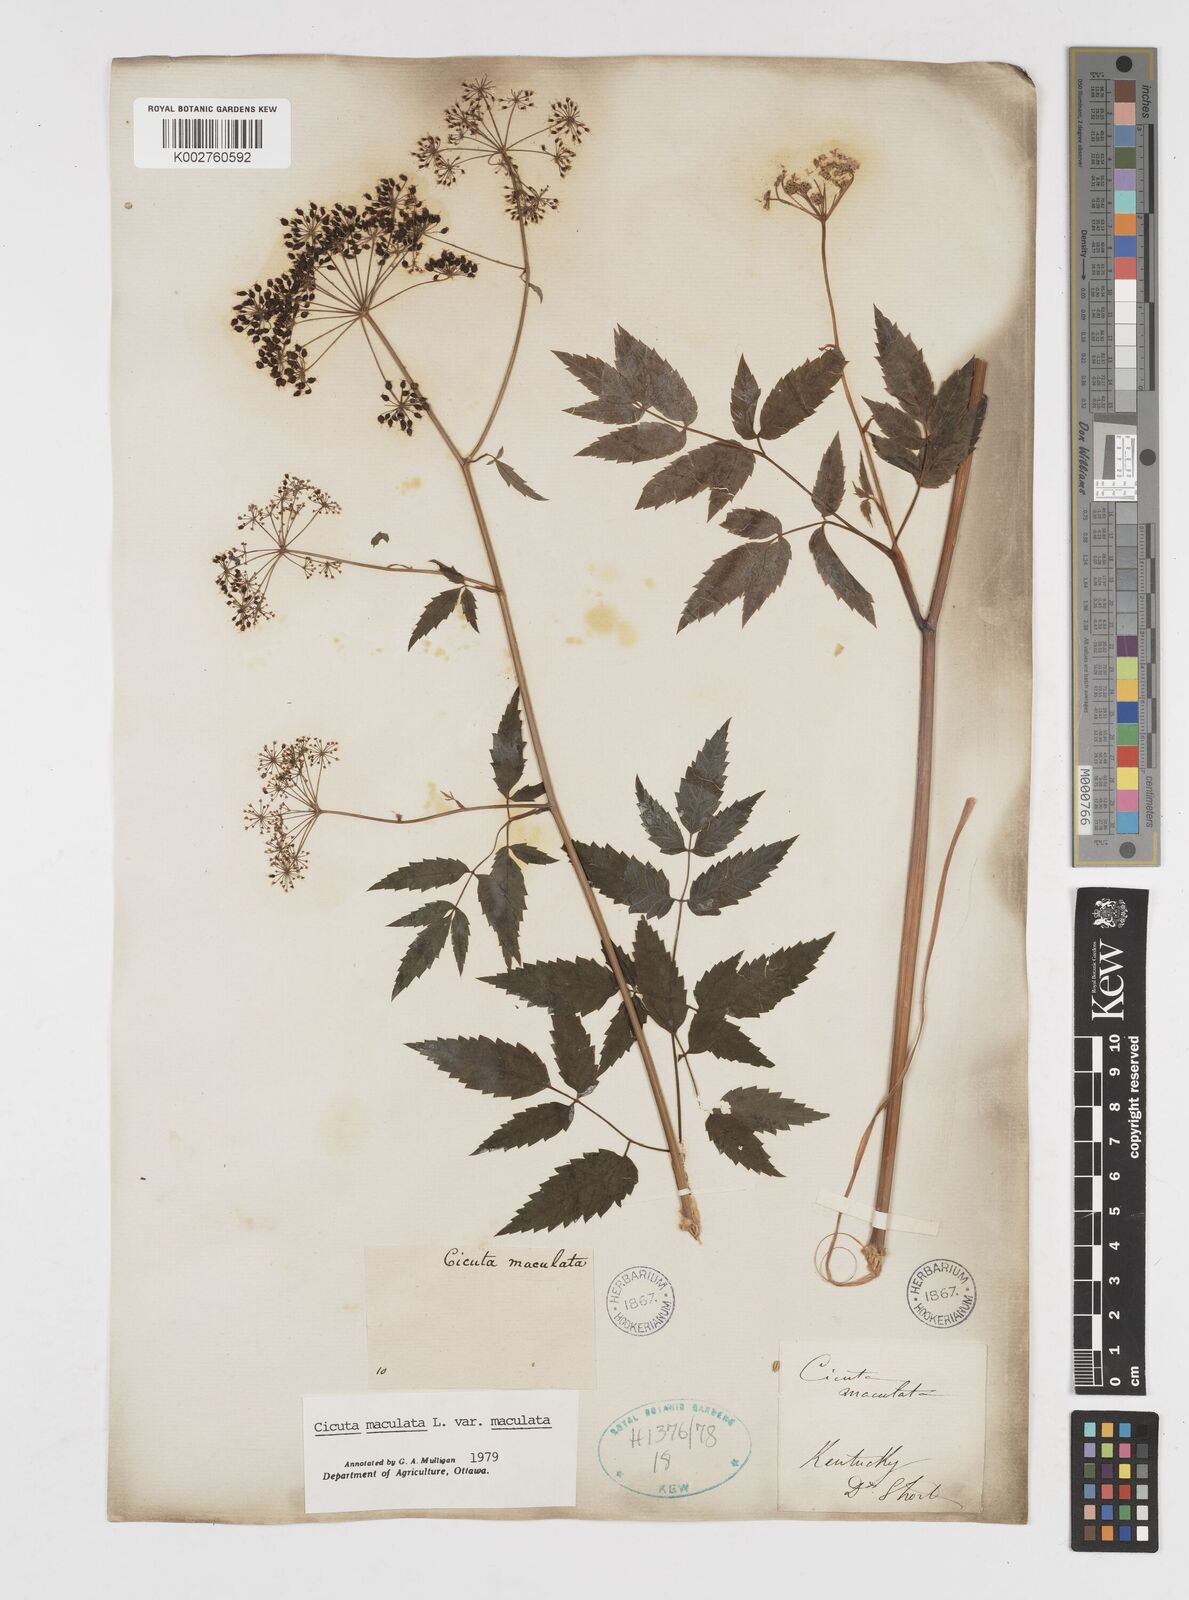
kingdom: Plantae
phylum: Tracheophyta
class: Magnoliopsida
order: Apiales
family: Apiaceae
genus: Cicuta
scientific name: Cicuta maculata
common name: Spotted cowbane
